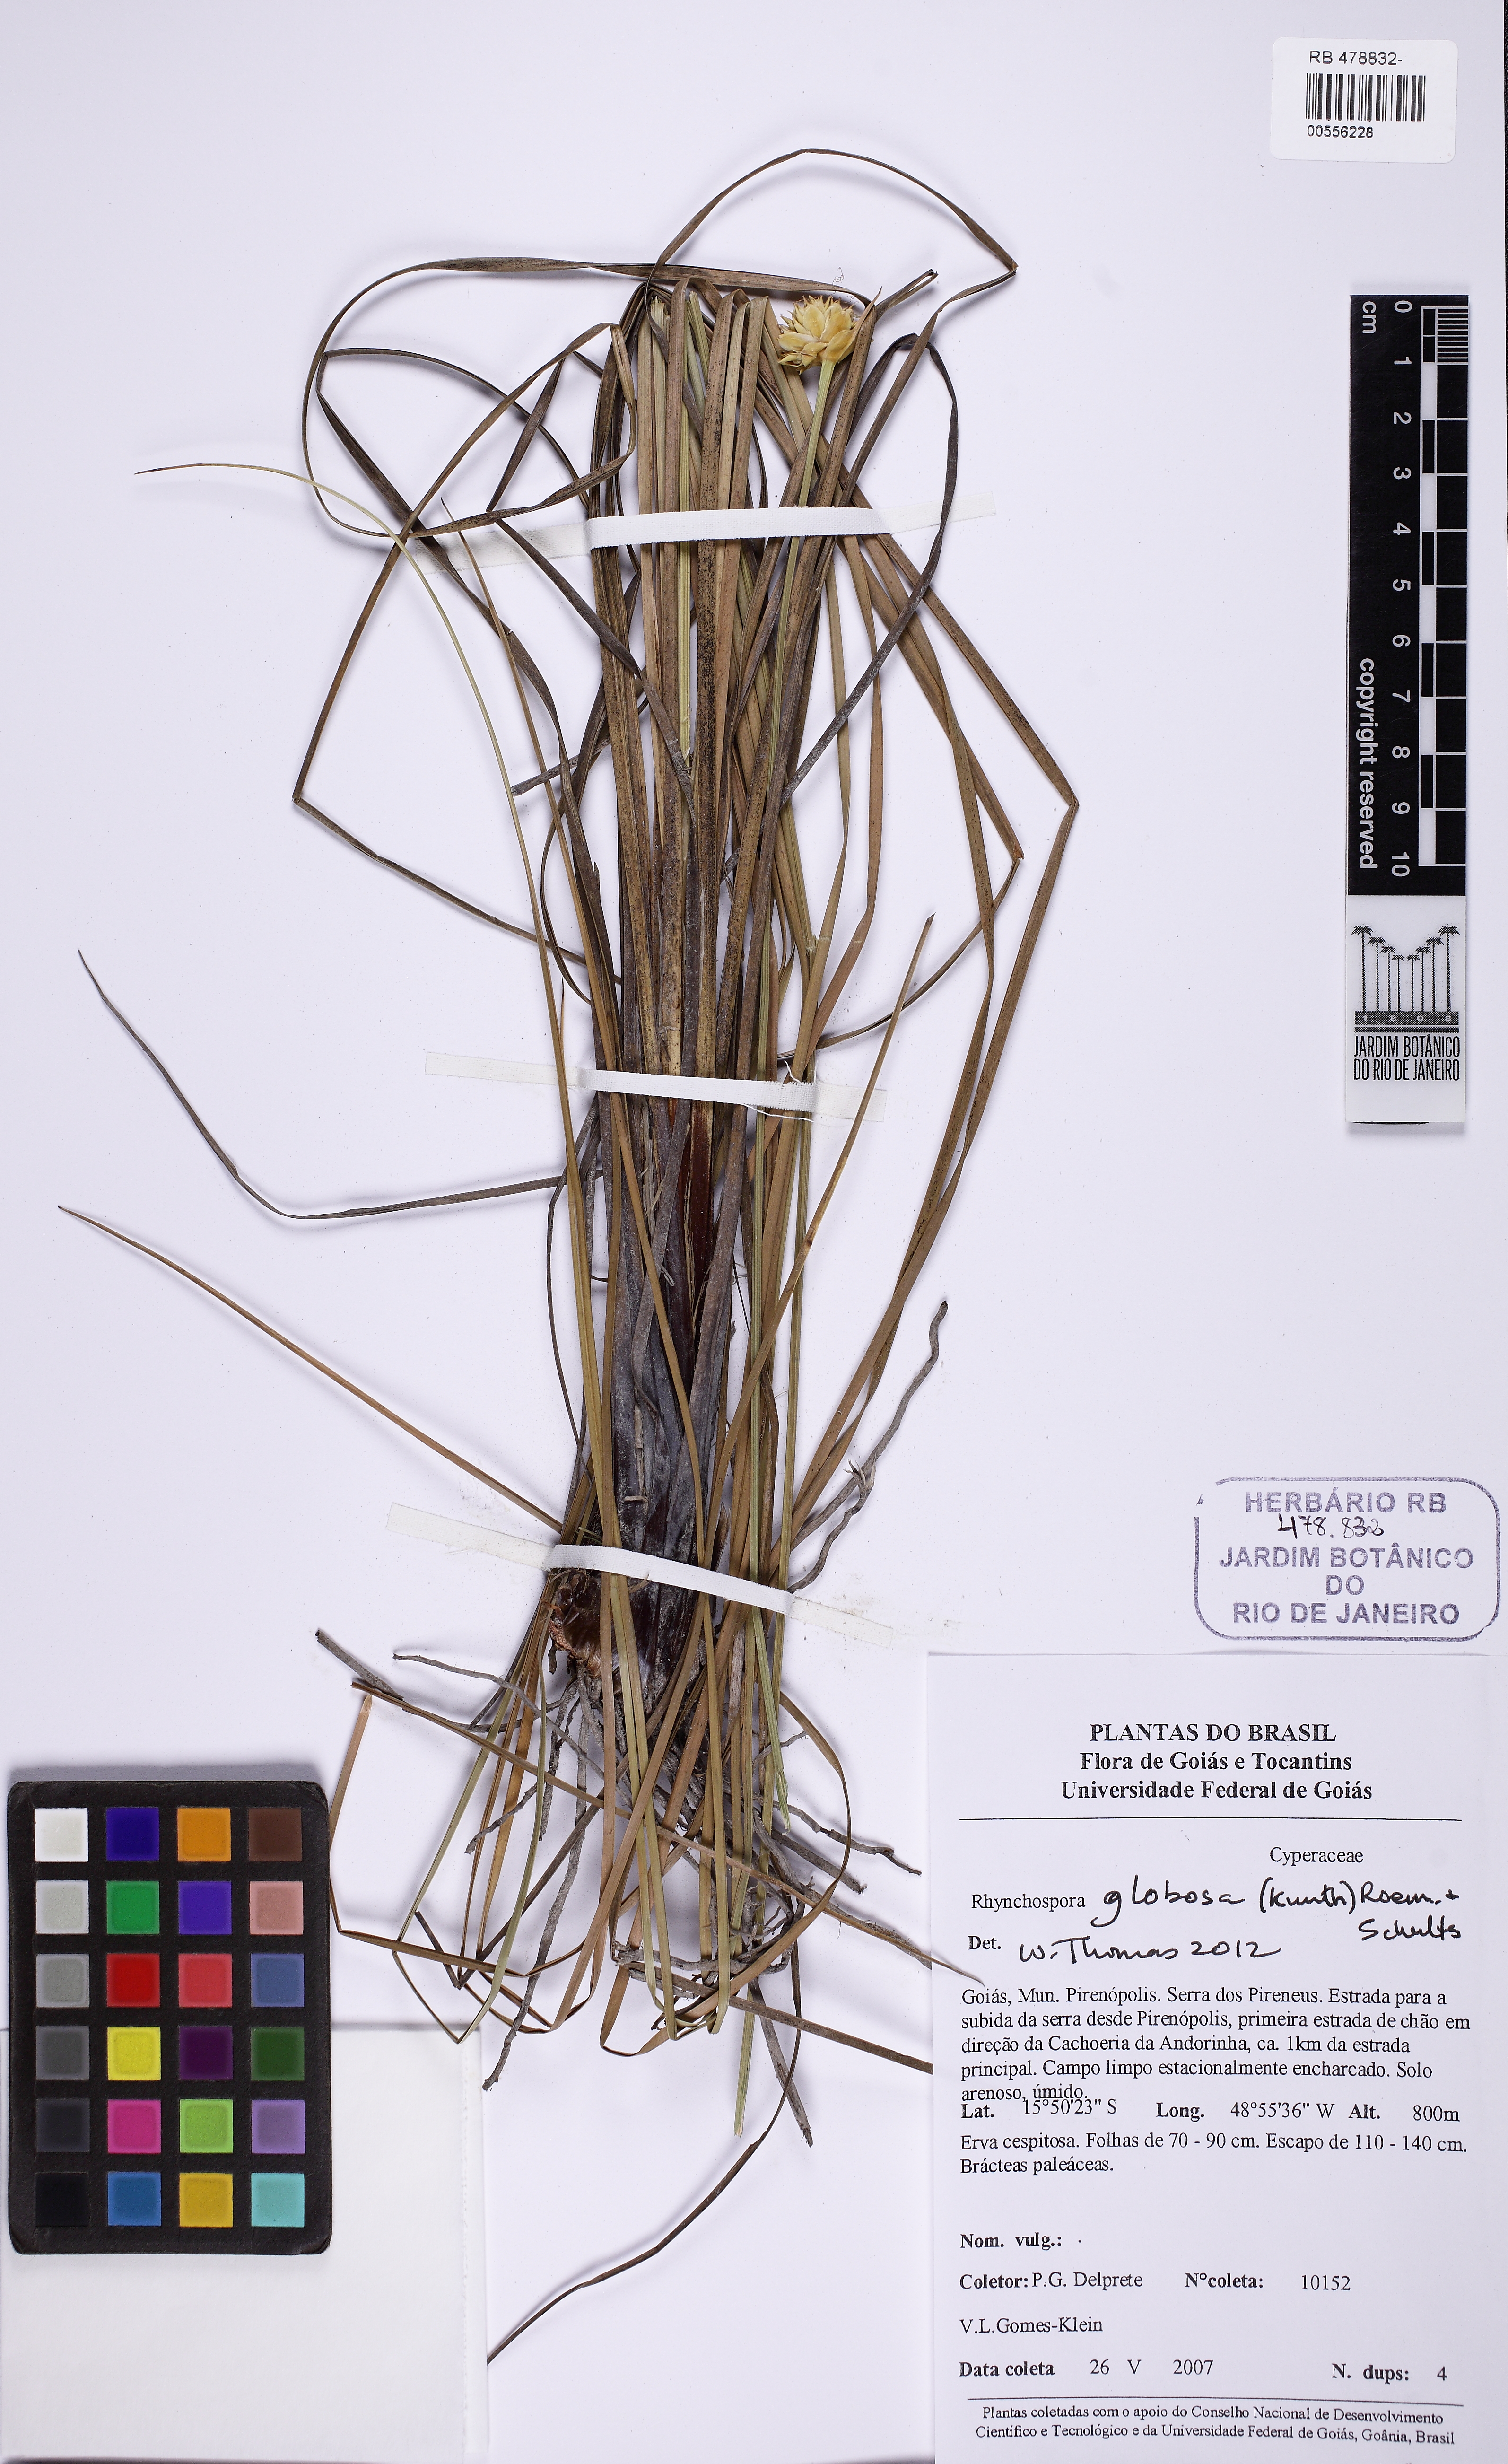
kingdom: Plantae
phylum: Tracheophyta
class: Liliopsida
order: Poales
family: Cyperaceae
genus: Rhynchospora
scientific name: Rhynchospora globosa
